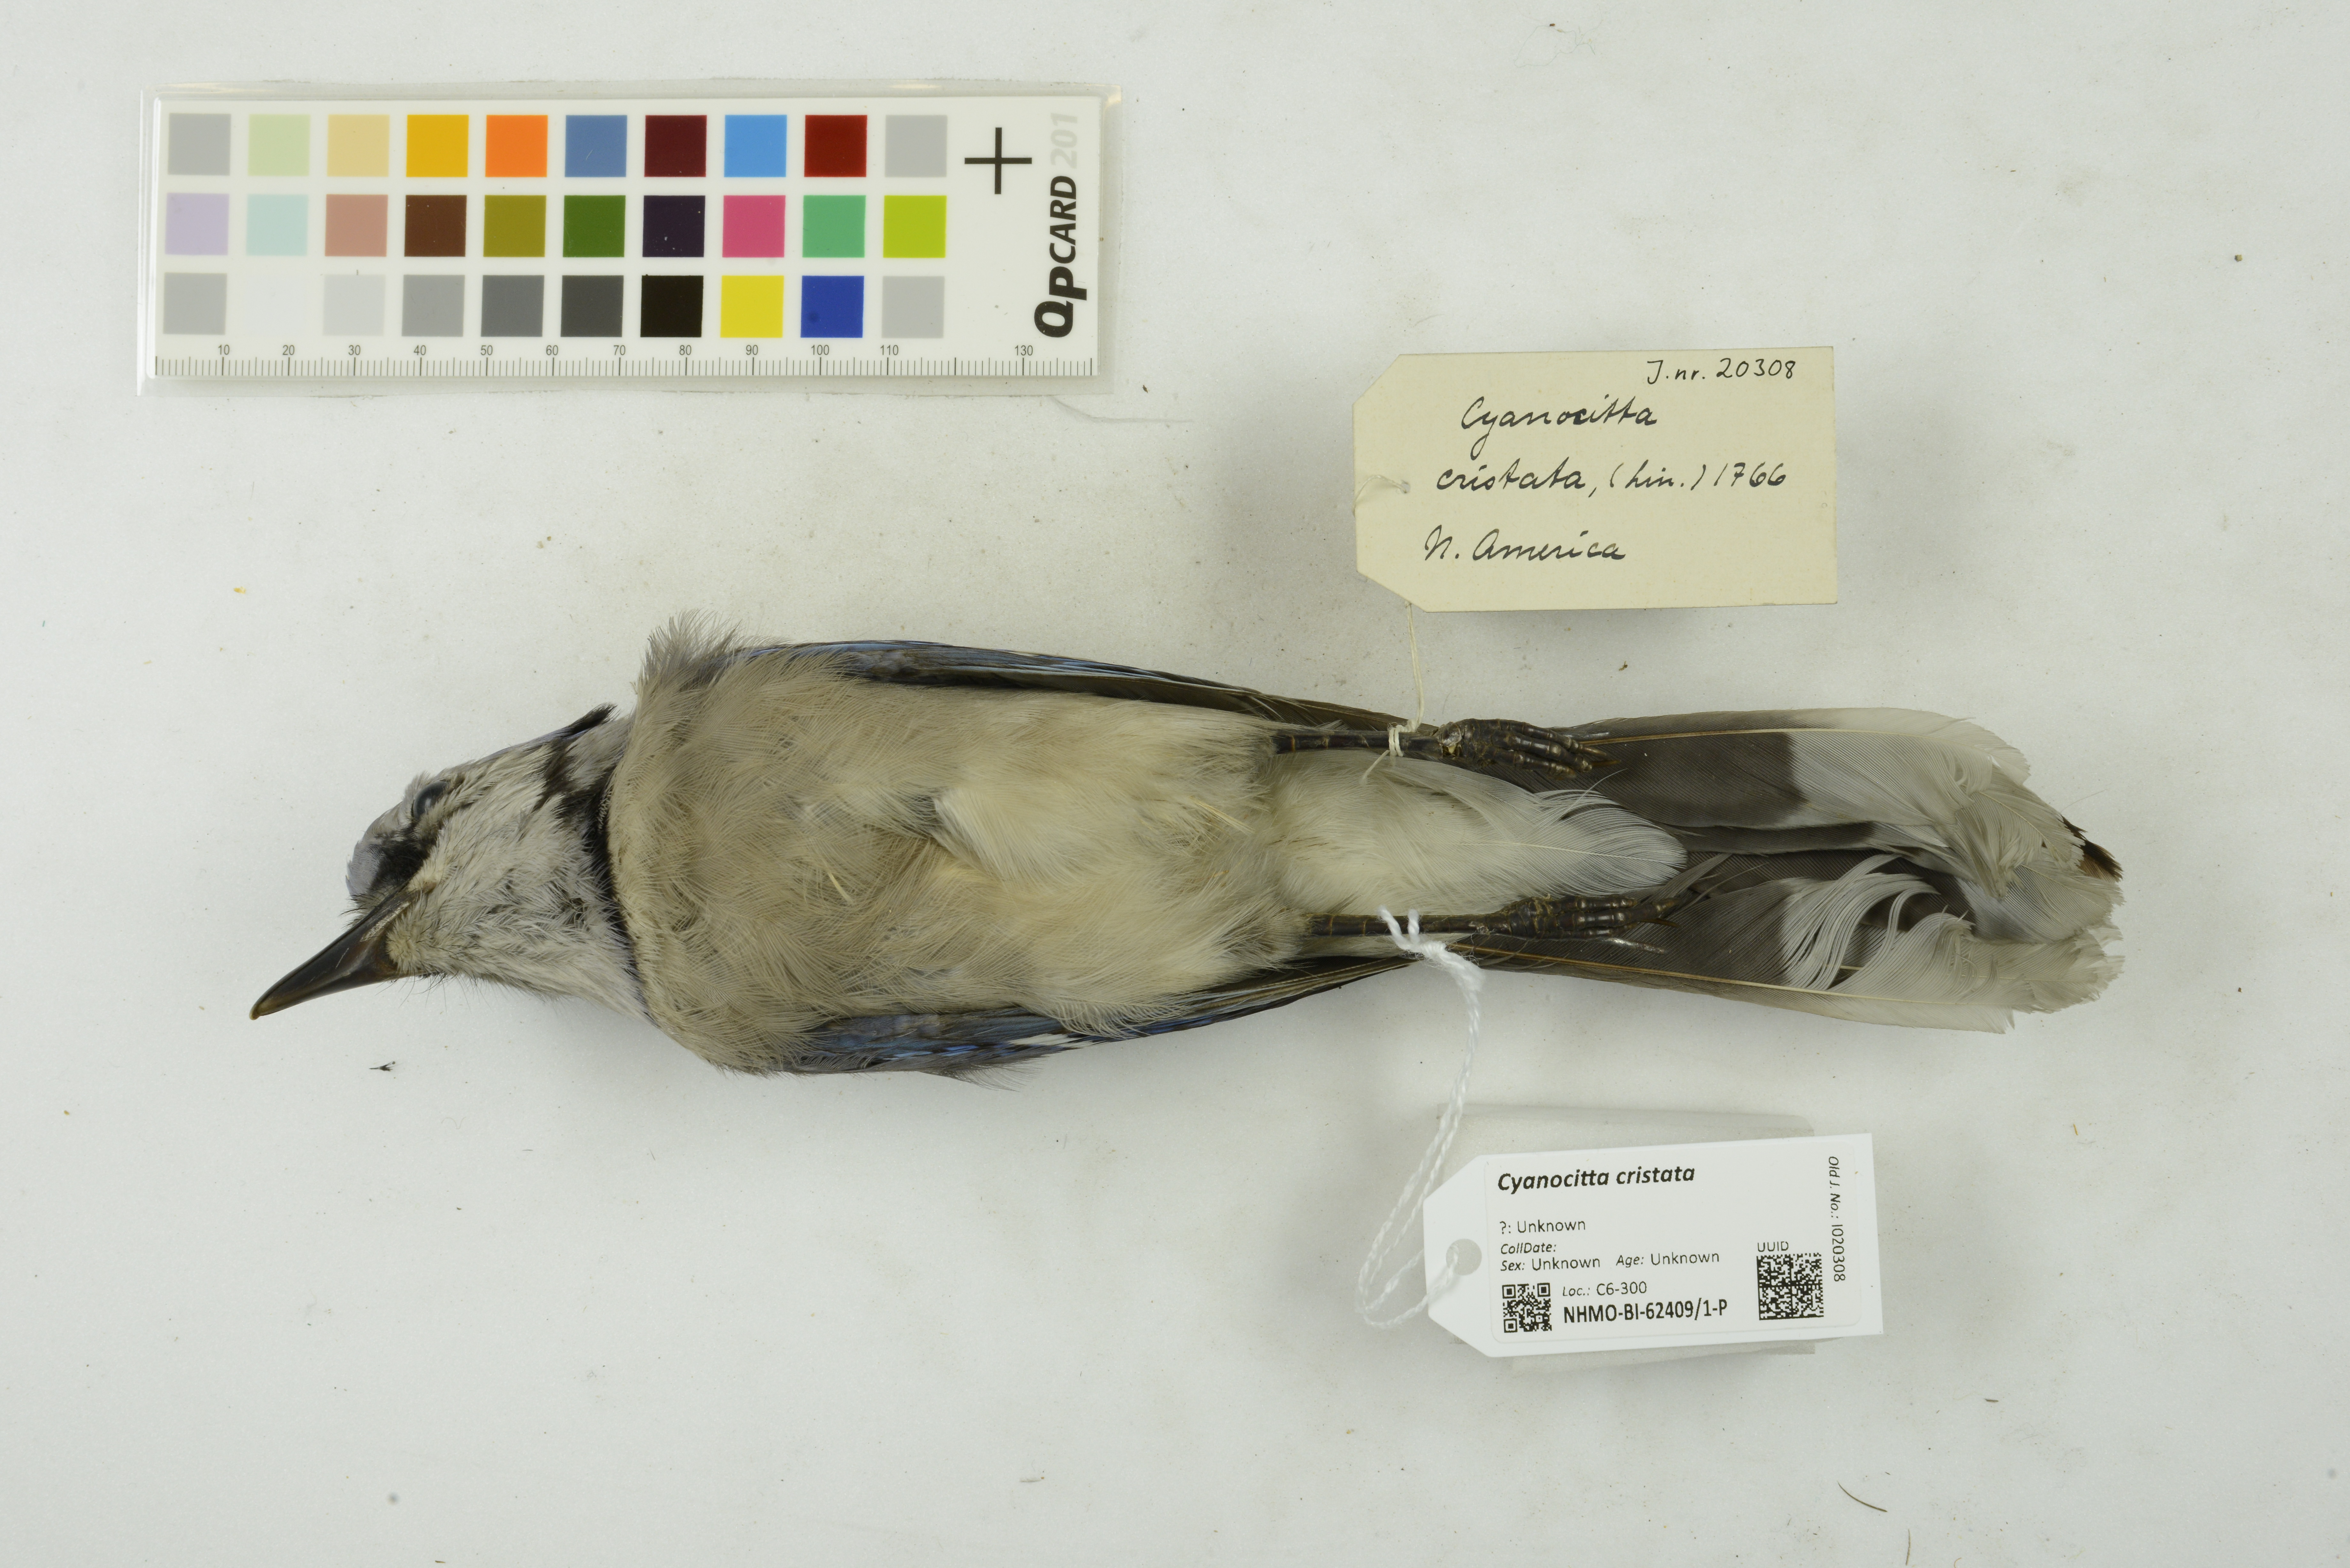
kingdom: Animalia
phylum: Chordata
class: Aves
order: Passeriformes
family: Corvidae
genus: Cyanocitta
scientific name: Cyanocitta cristata
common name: Blue jay
